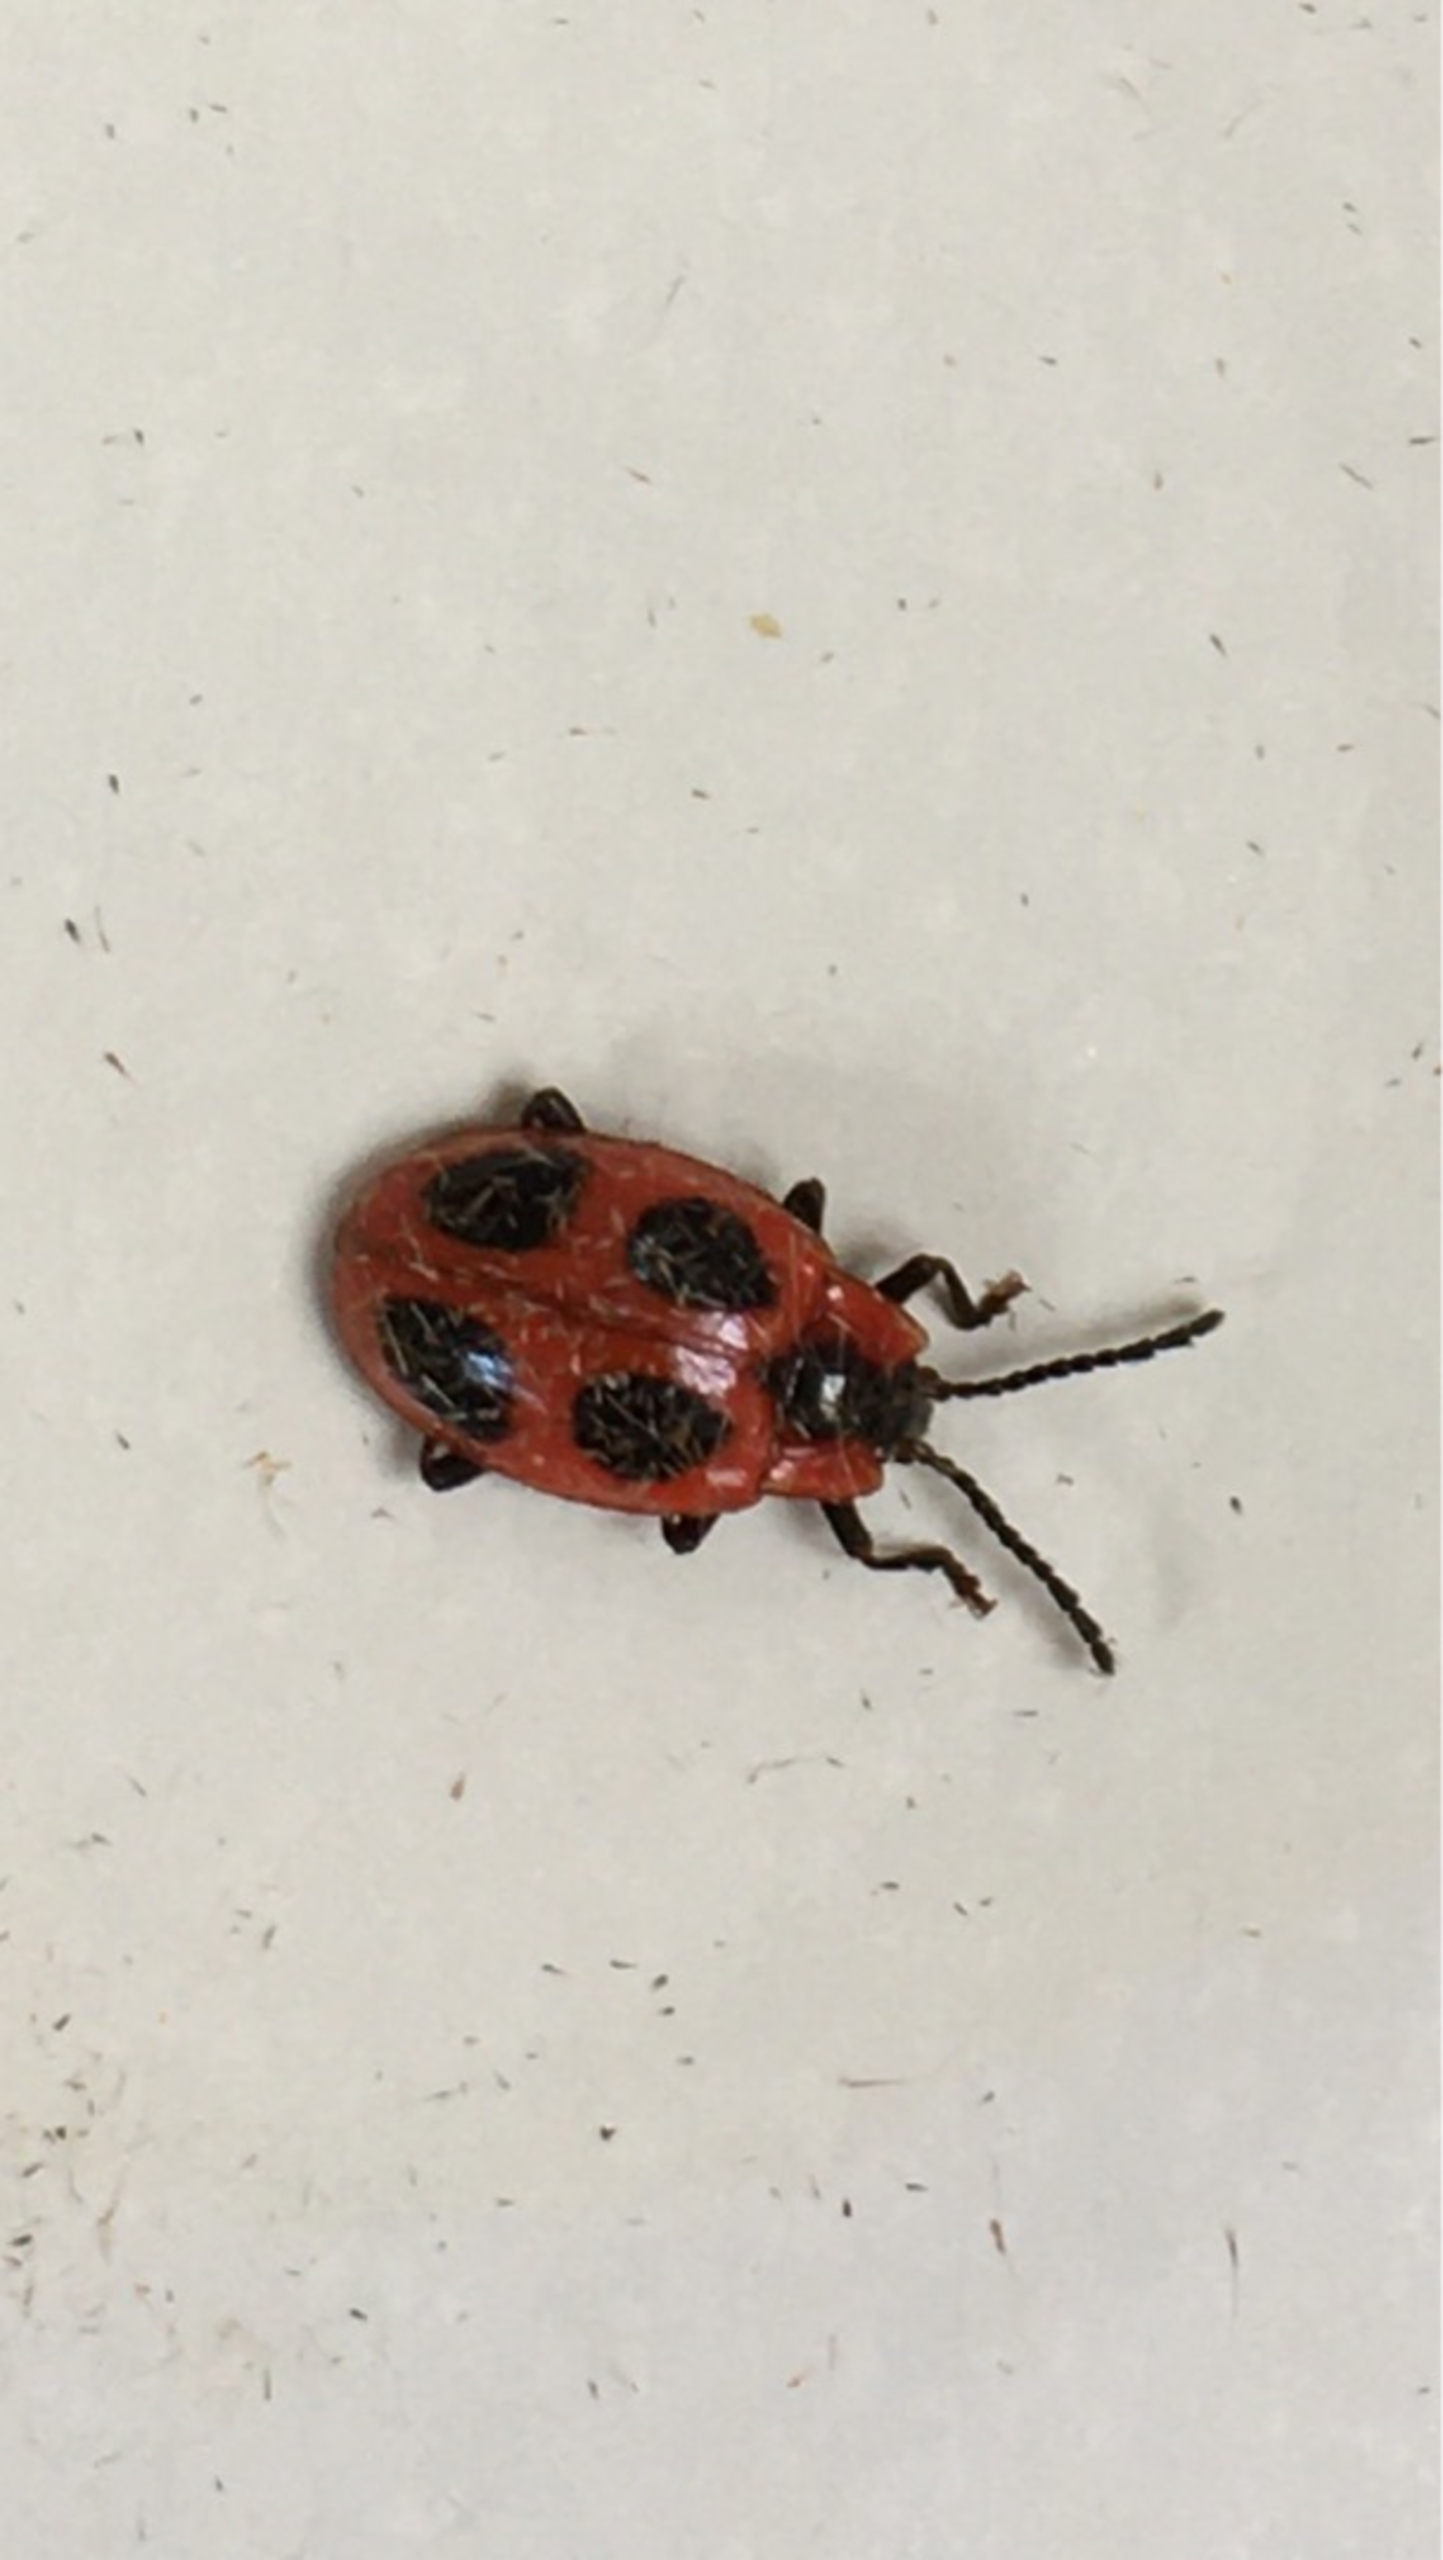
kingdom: Animalia
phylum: Arthropoda
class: Insecta
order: Coleoptera
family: Endomychidae
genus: Endomychus
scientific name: Endomychus coccineus
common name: Skarlagensvampehøne
